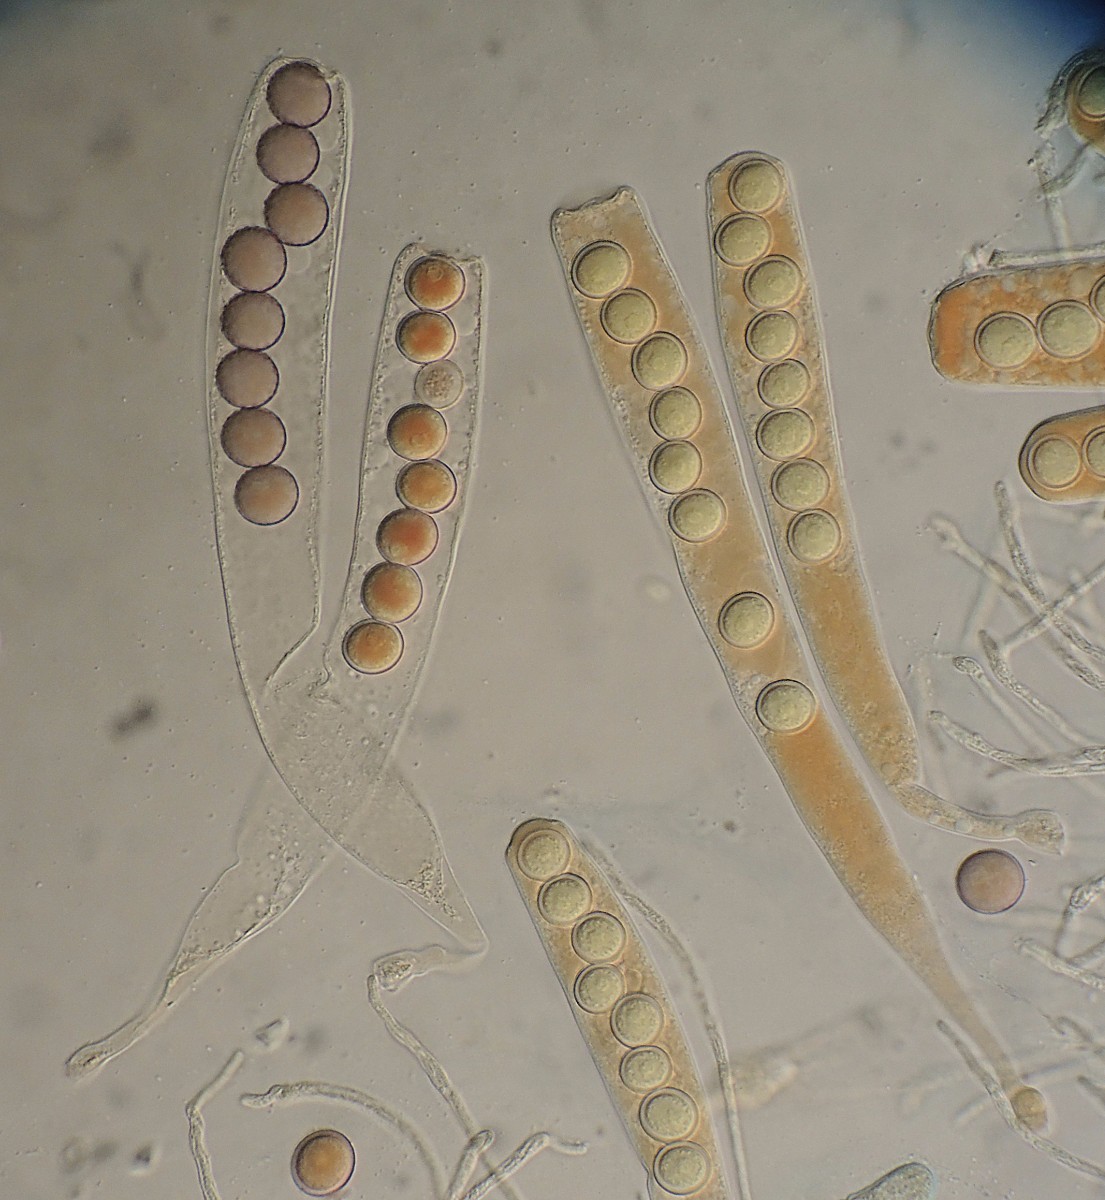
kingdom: Fungi
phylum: Ascomycota
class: Pezizomycetes
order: Pezizales
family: Ascobolaceae
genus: Ascobolus
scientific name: Ascobolus brassicae
